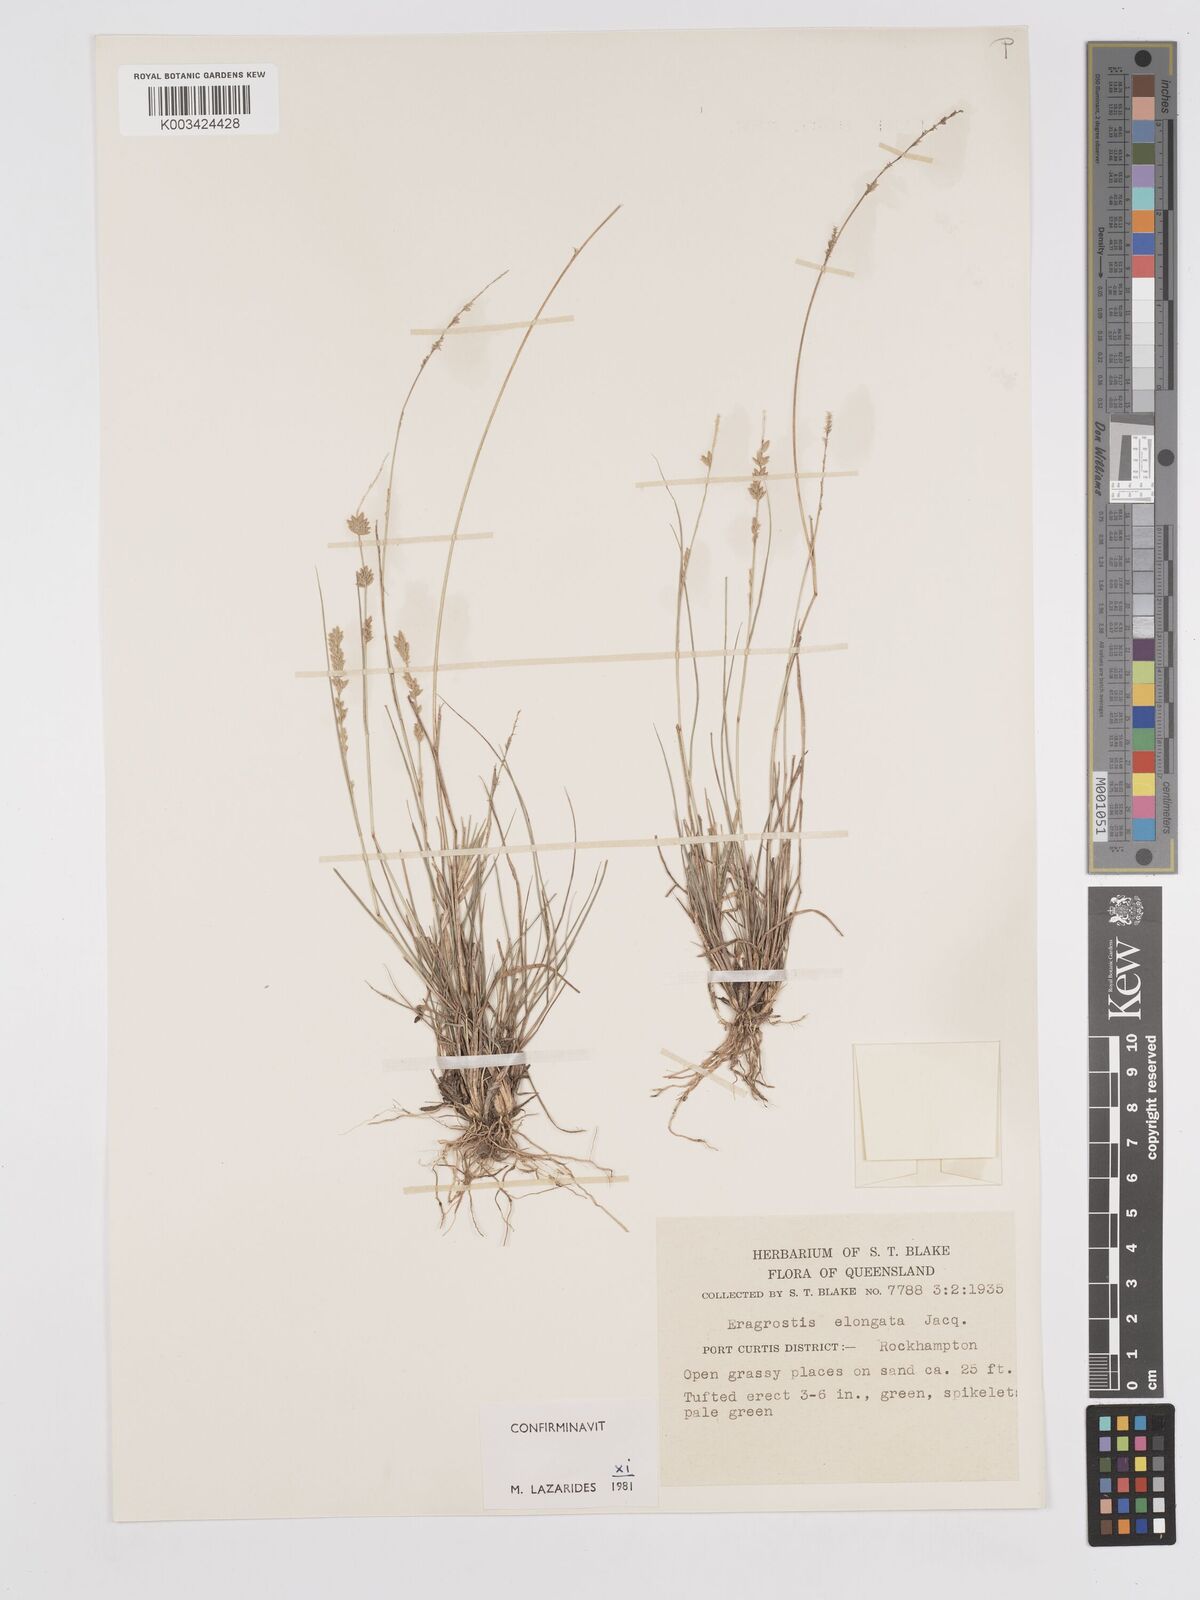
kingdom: Plantae
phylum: Tracheophyta
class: Liliopsida
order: Poales
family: Poaceae
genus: Eragrostis
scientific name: Eragrostis elongata
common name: Long lovegrass
